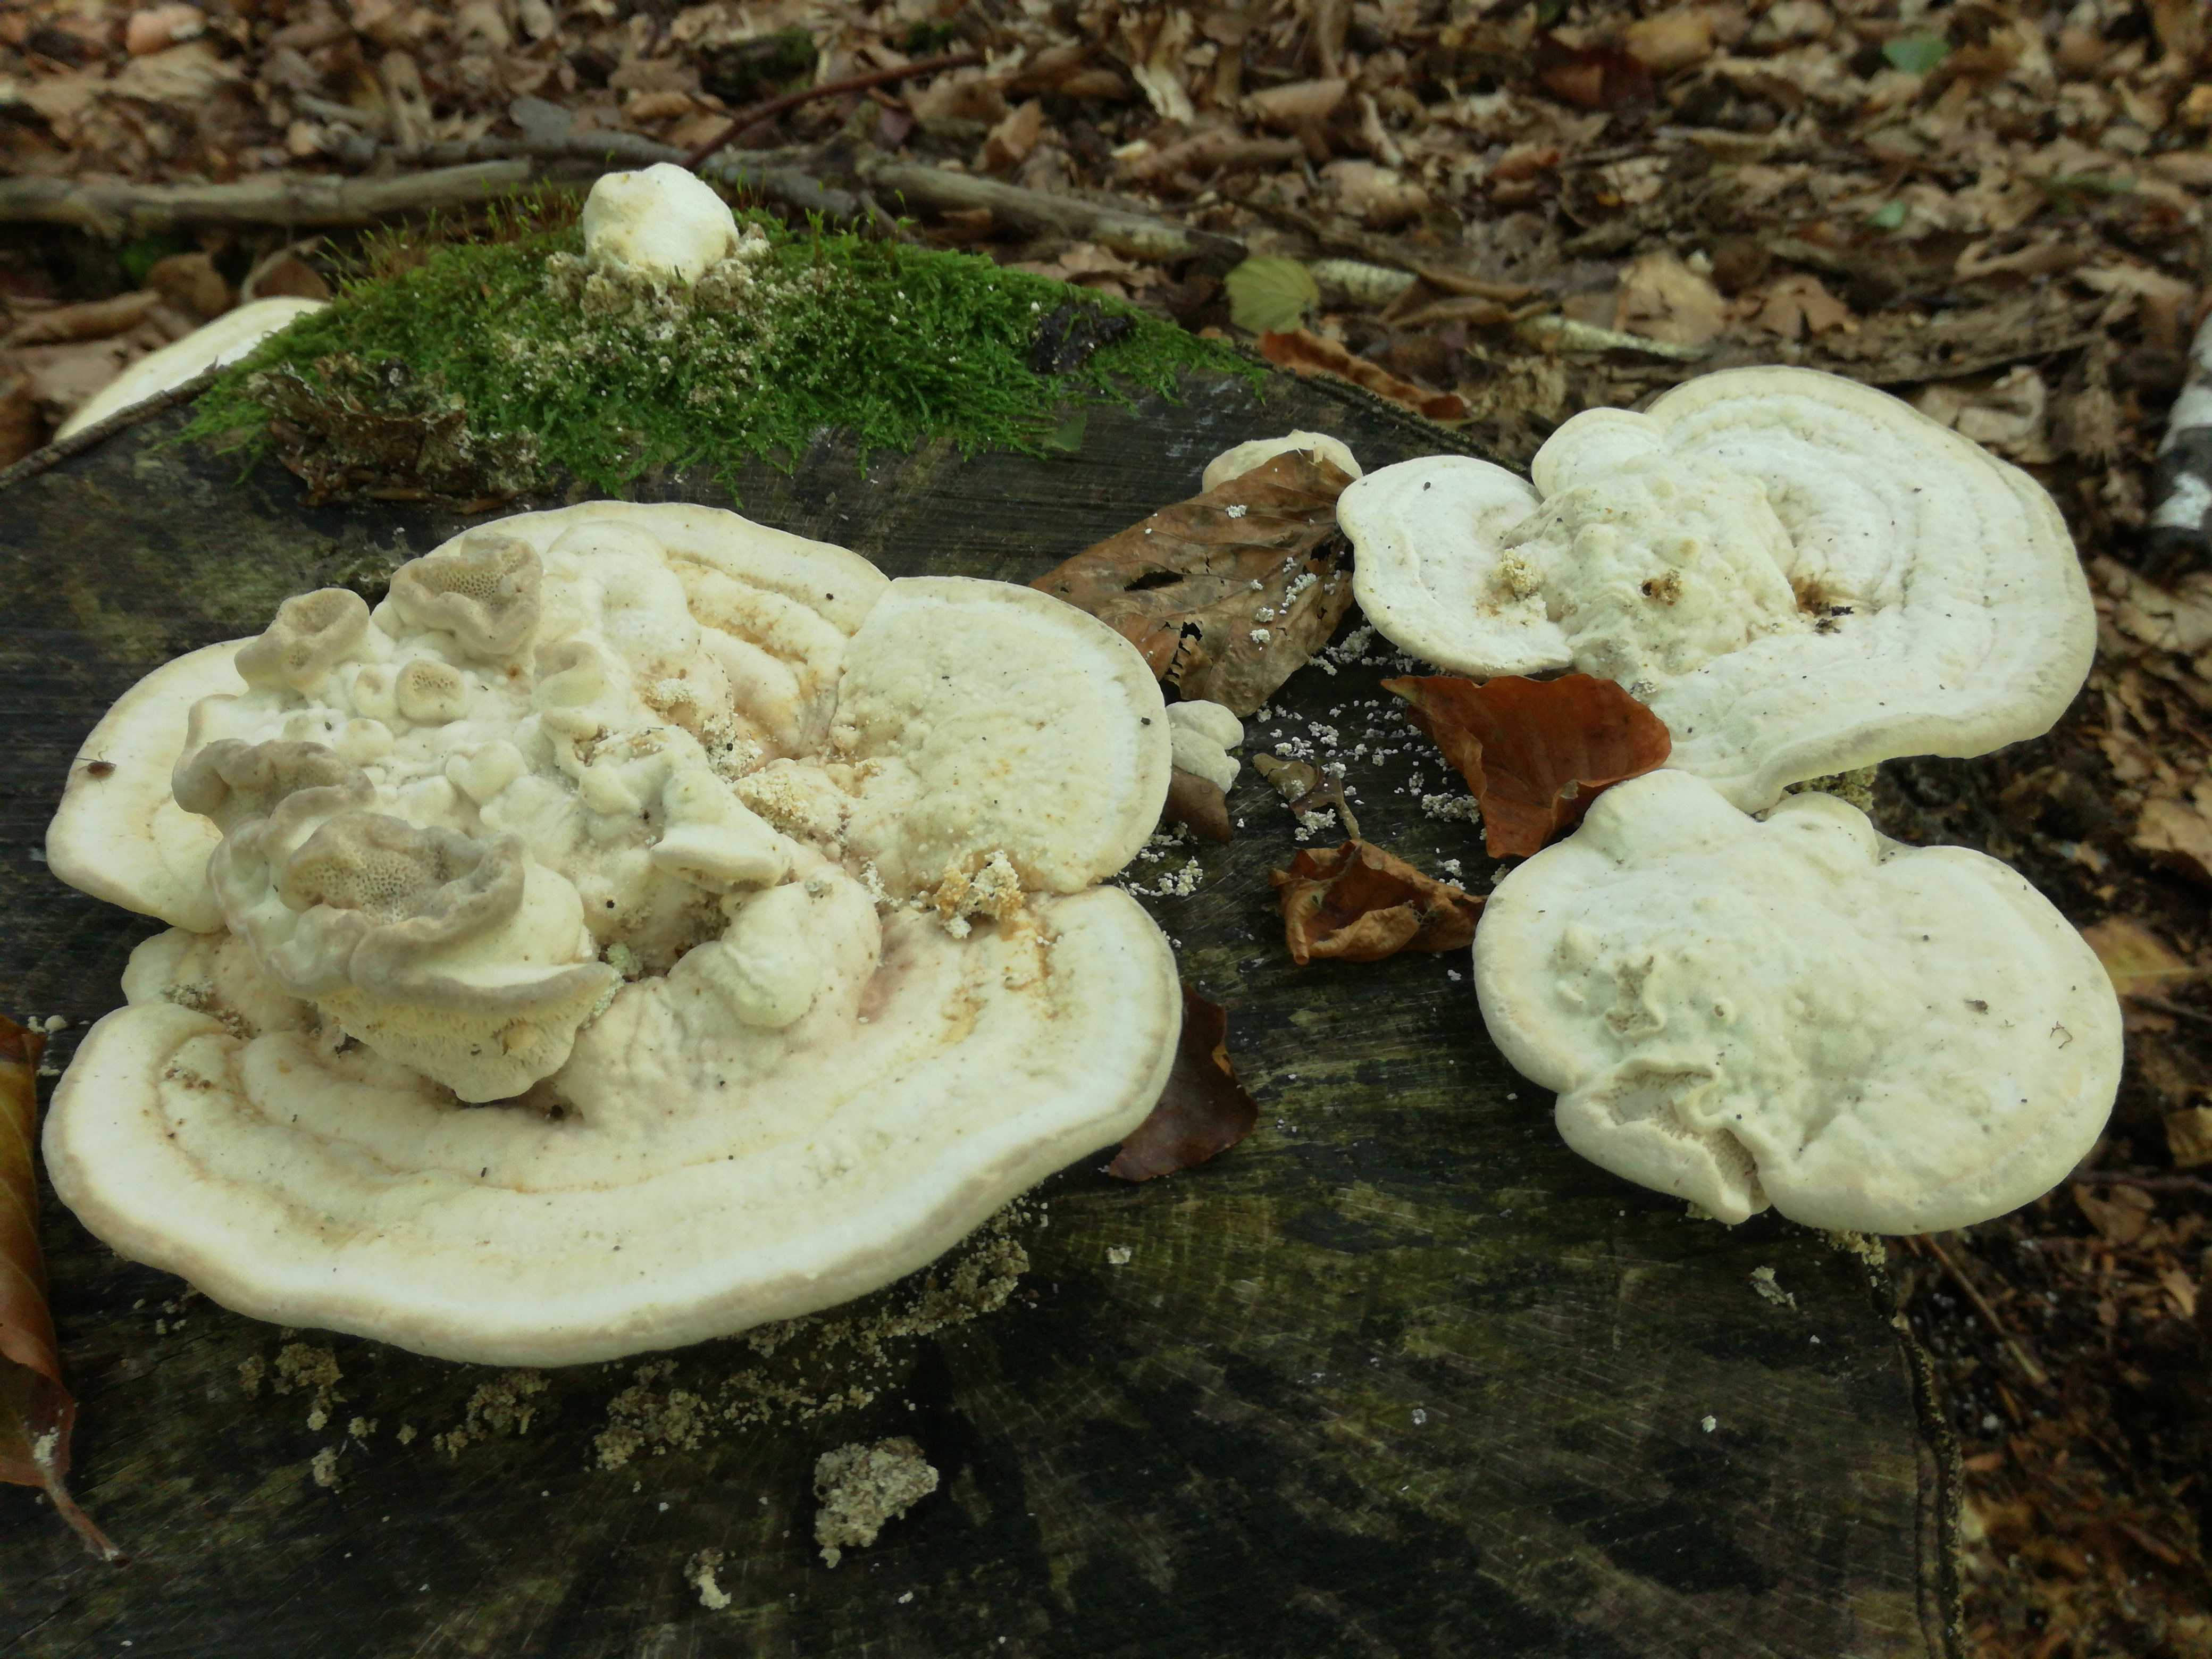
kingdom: Fungi
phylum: Basidiomycota
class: Agaricomycetes
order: Polyporales
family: Polyporaceae
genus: Trametes
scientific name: Trametes gibbosa
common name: puklet læderporesvamp
